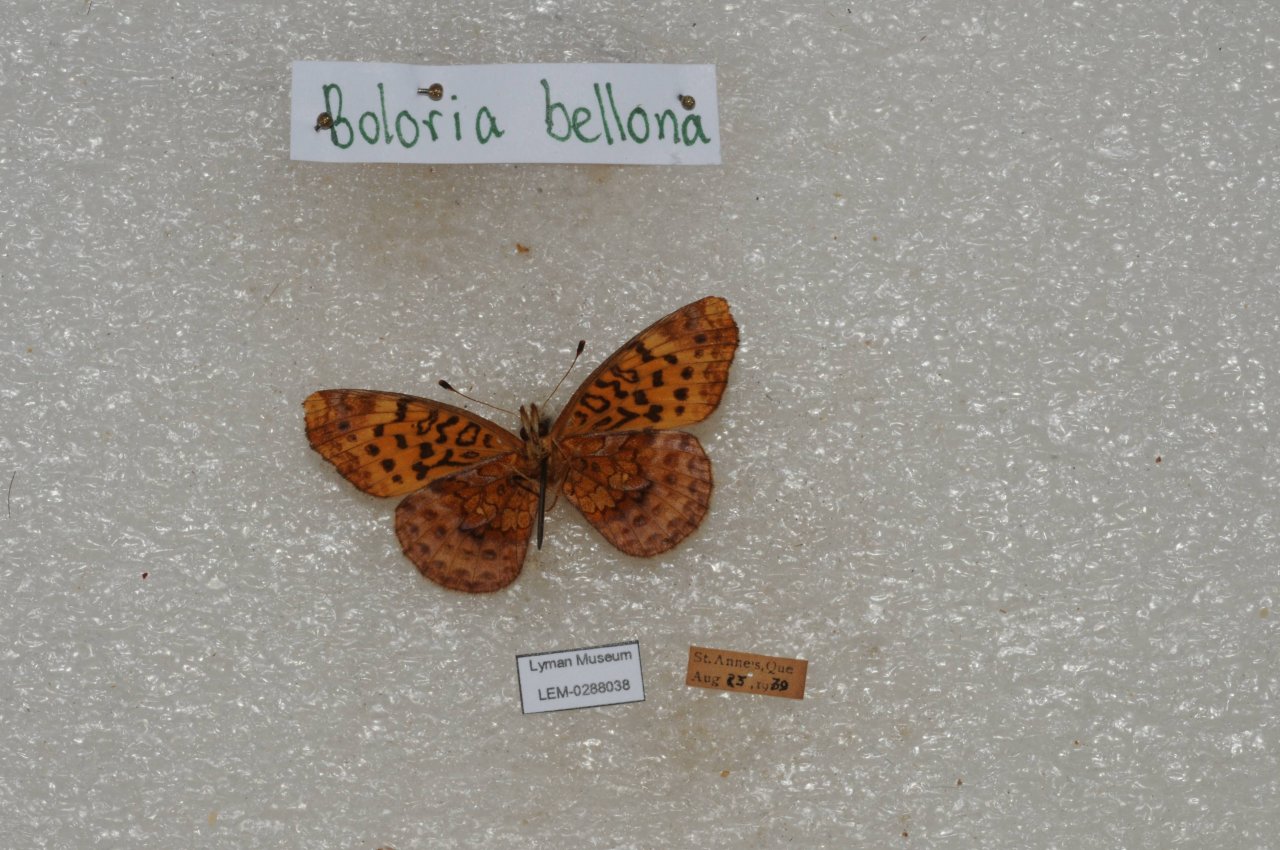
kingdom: Animalia
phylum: Arthropoda
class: Insecta
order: Lepidoptera
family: Nymphalidae
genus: Clossiana
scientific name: Clossiana toddi
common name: Meadow Fritillary
